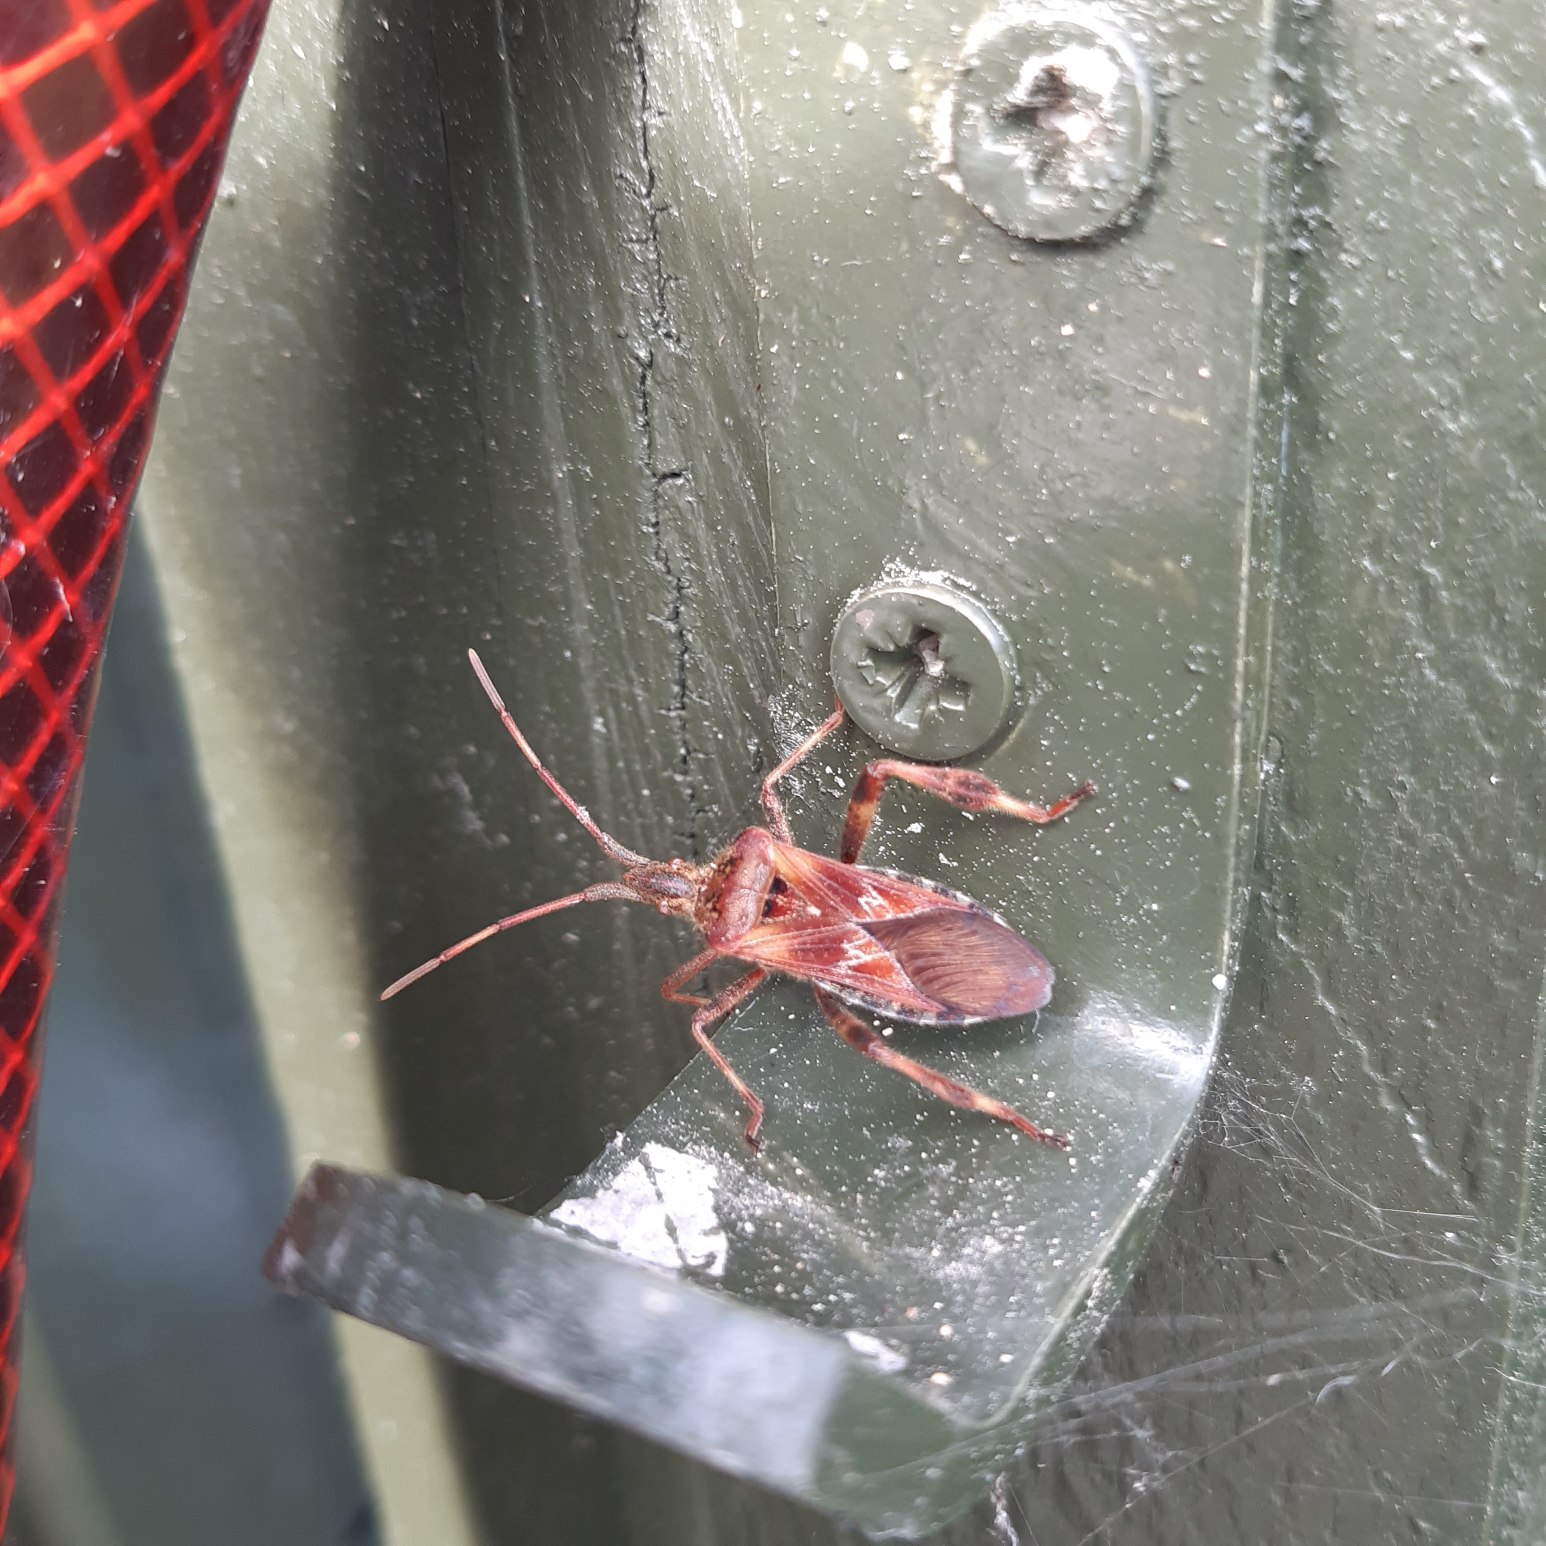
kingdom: Animalia
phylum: Arthropoda
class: Insecta
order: Hemiptera
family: Coreidae
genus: Leptoglossus
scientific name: Leptoglossus occidentalis
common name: Amerikansk fyrretæge
